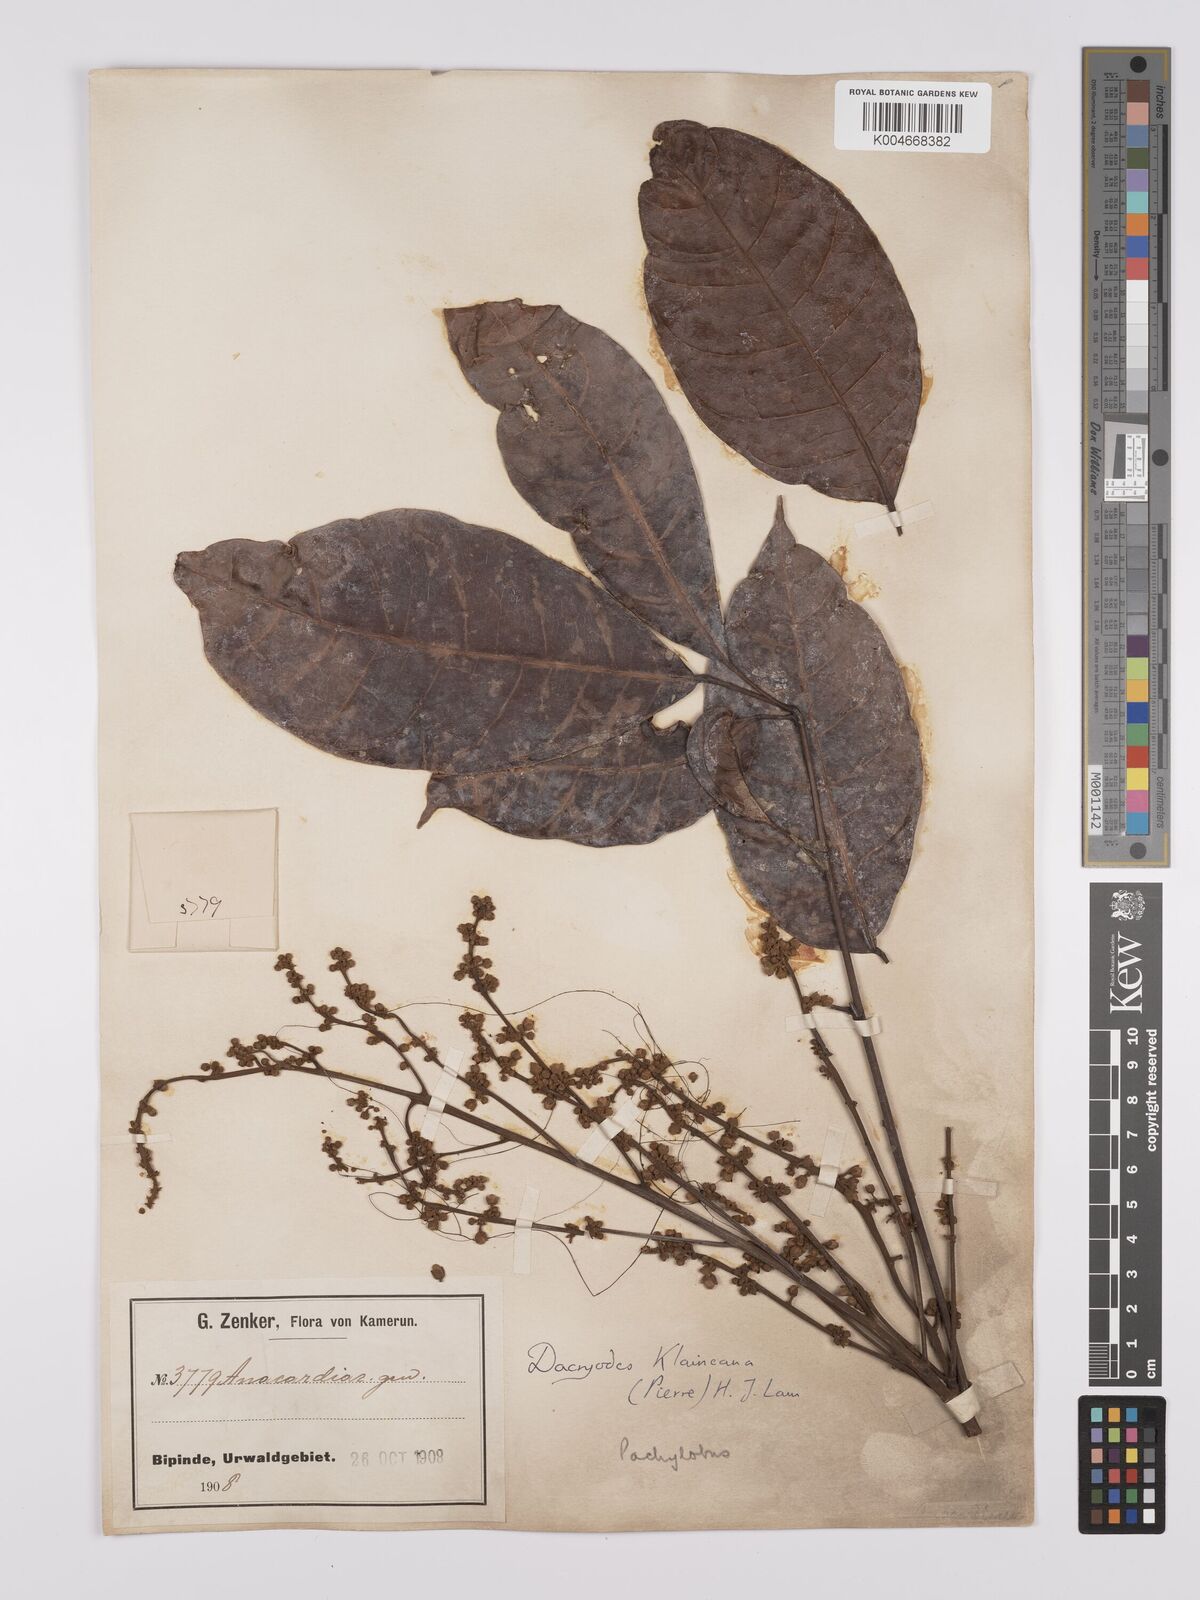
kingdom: Plantae
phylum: Tracheophyta
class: Magnoliopsida
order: Sapindales
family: Burseraceae
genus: Pachylobus
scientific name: Pachylobus klaineana
